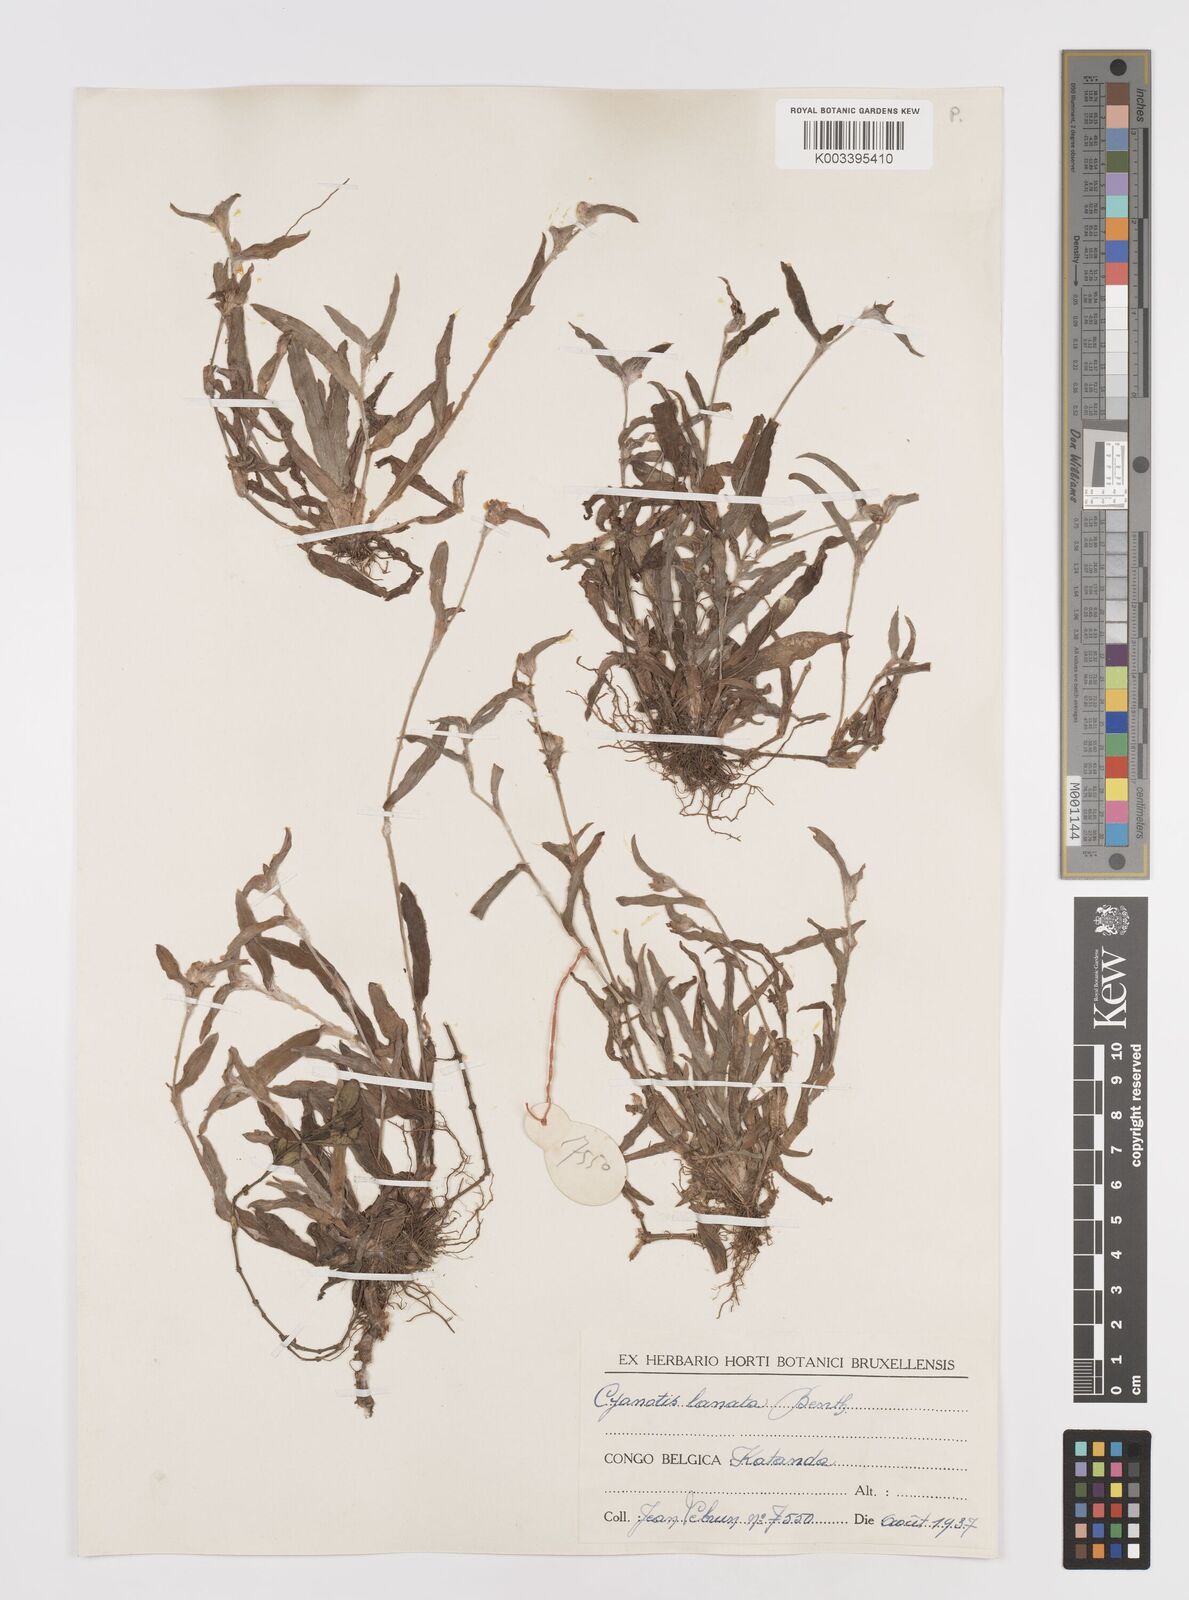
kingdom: Plantae
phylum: Tracheophyta
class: Liliopsida
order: Commelinales
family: Commelinaceae
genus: Cyanotis
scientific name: Cyanotis lanata
